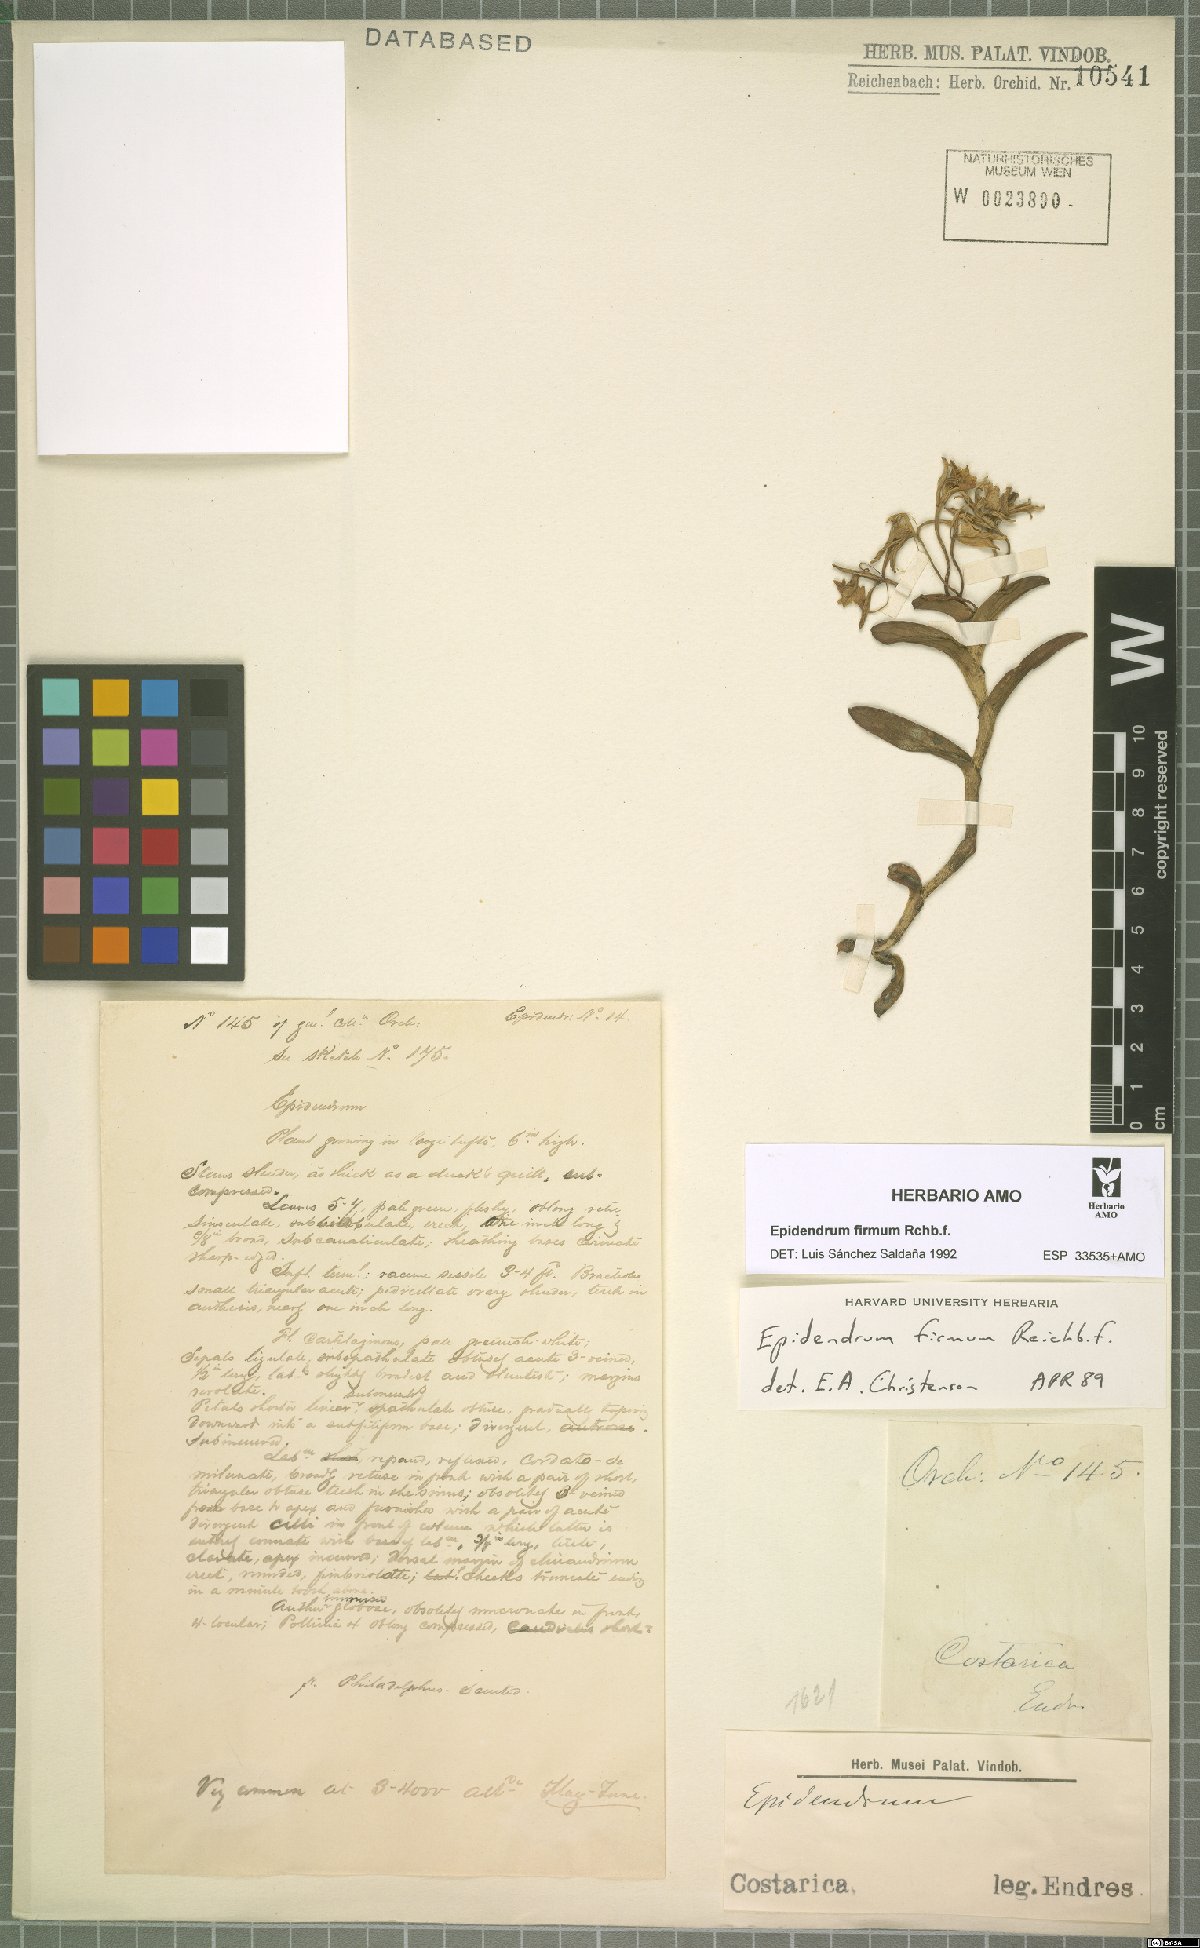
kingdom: Plantae
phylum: Tracheophyta
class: Liliopsida
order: Asparagales
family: Orchidaceae
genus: Epidendrum
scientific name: Epidendrum firmum
